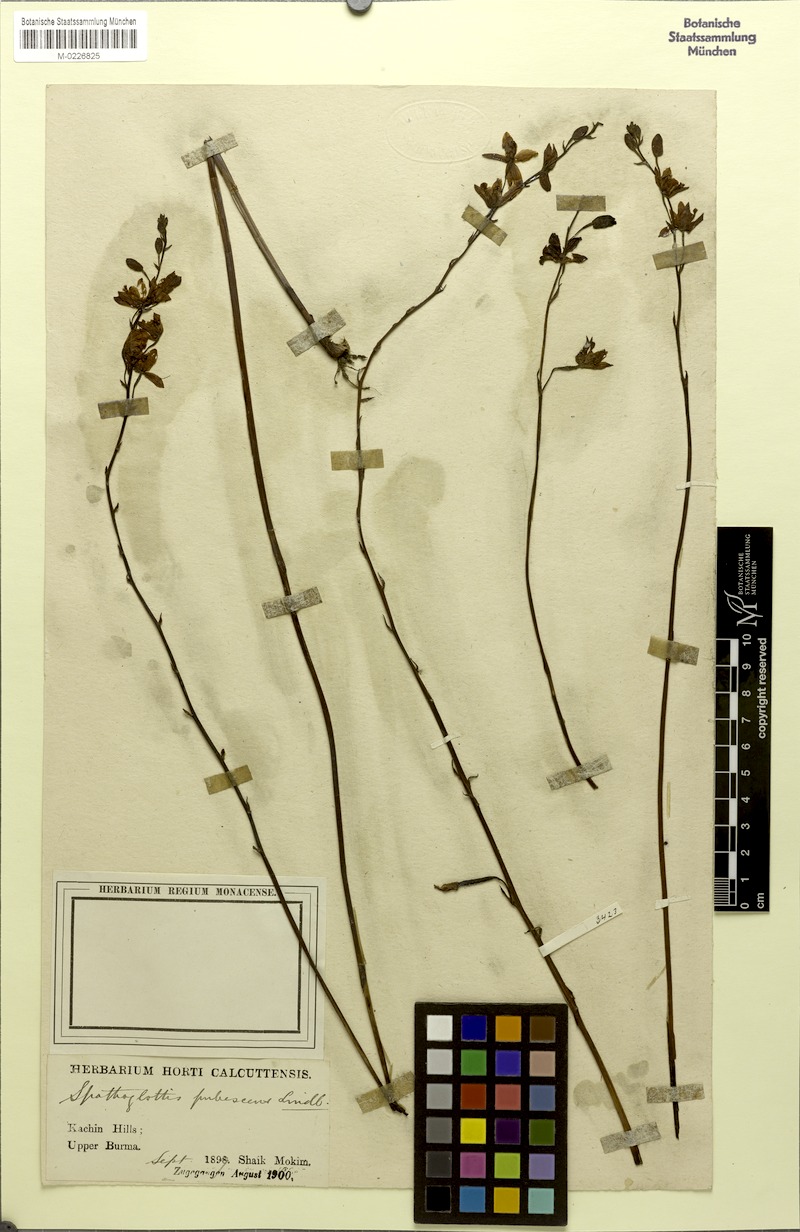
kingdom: Plantae
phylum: Tracheophyta
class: Liliopsida
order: Asparagales
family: Orchidaceae
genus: Spathoglottis
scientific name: Spathoglottis pubescens
